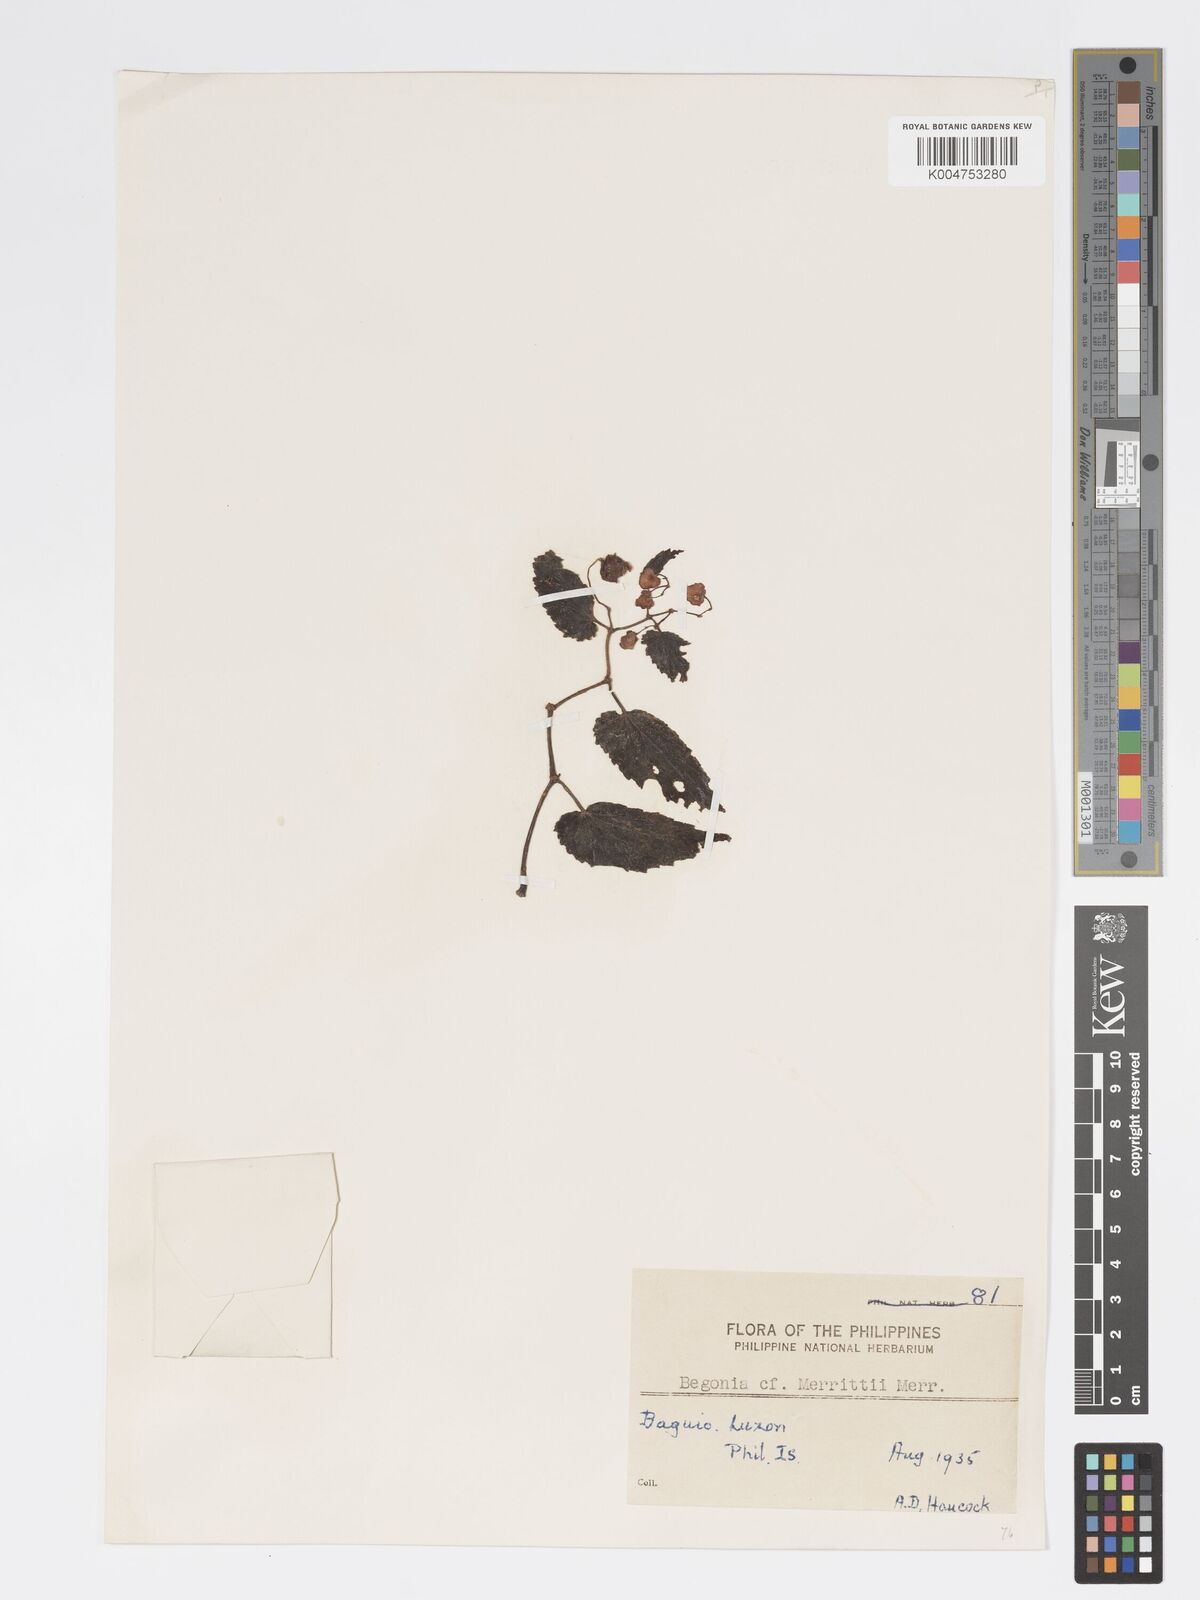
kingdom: Plantae
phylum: Tracheophyta
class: Magnoliopsida
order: Cucurbitales
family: Begoniaceae
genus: Begonia
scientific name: Begonia merrittii
